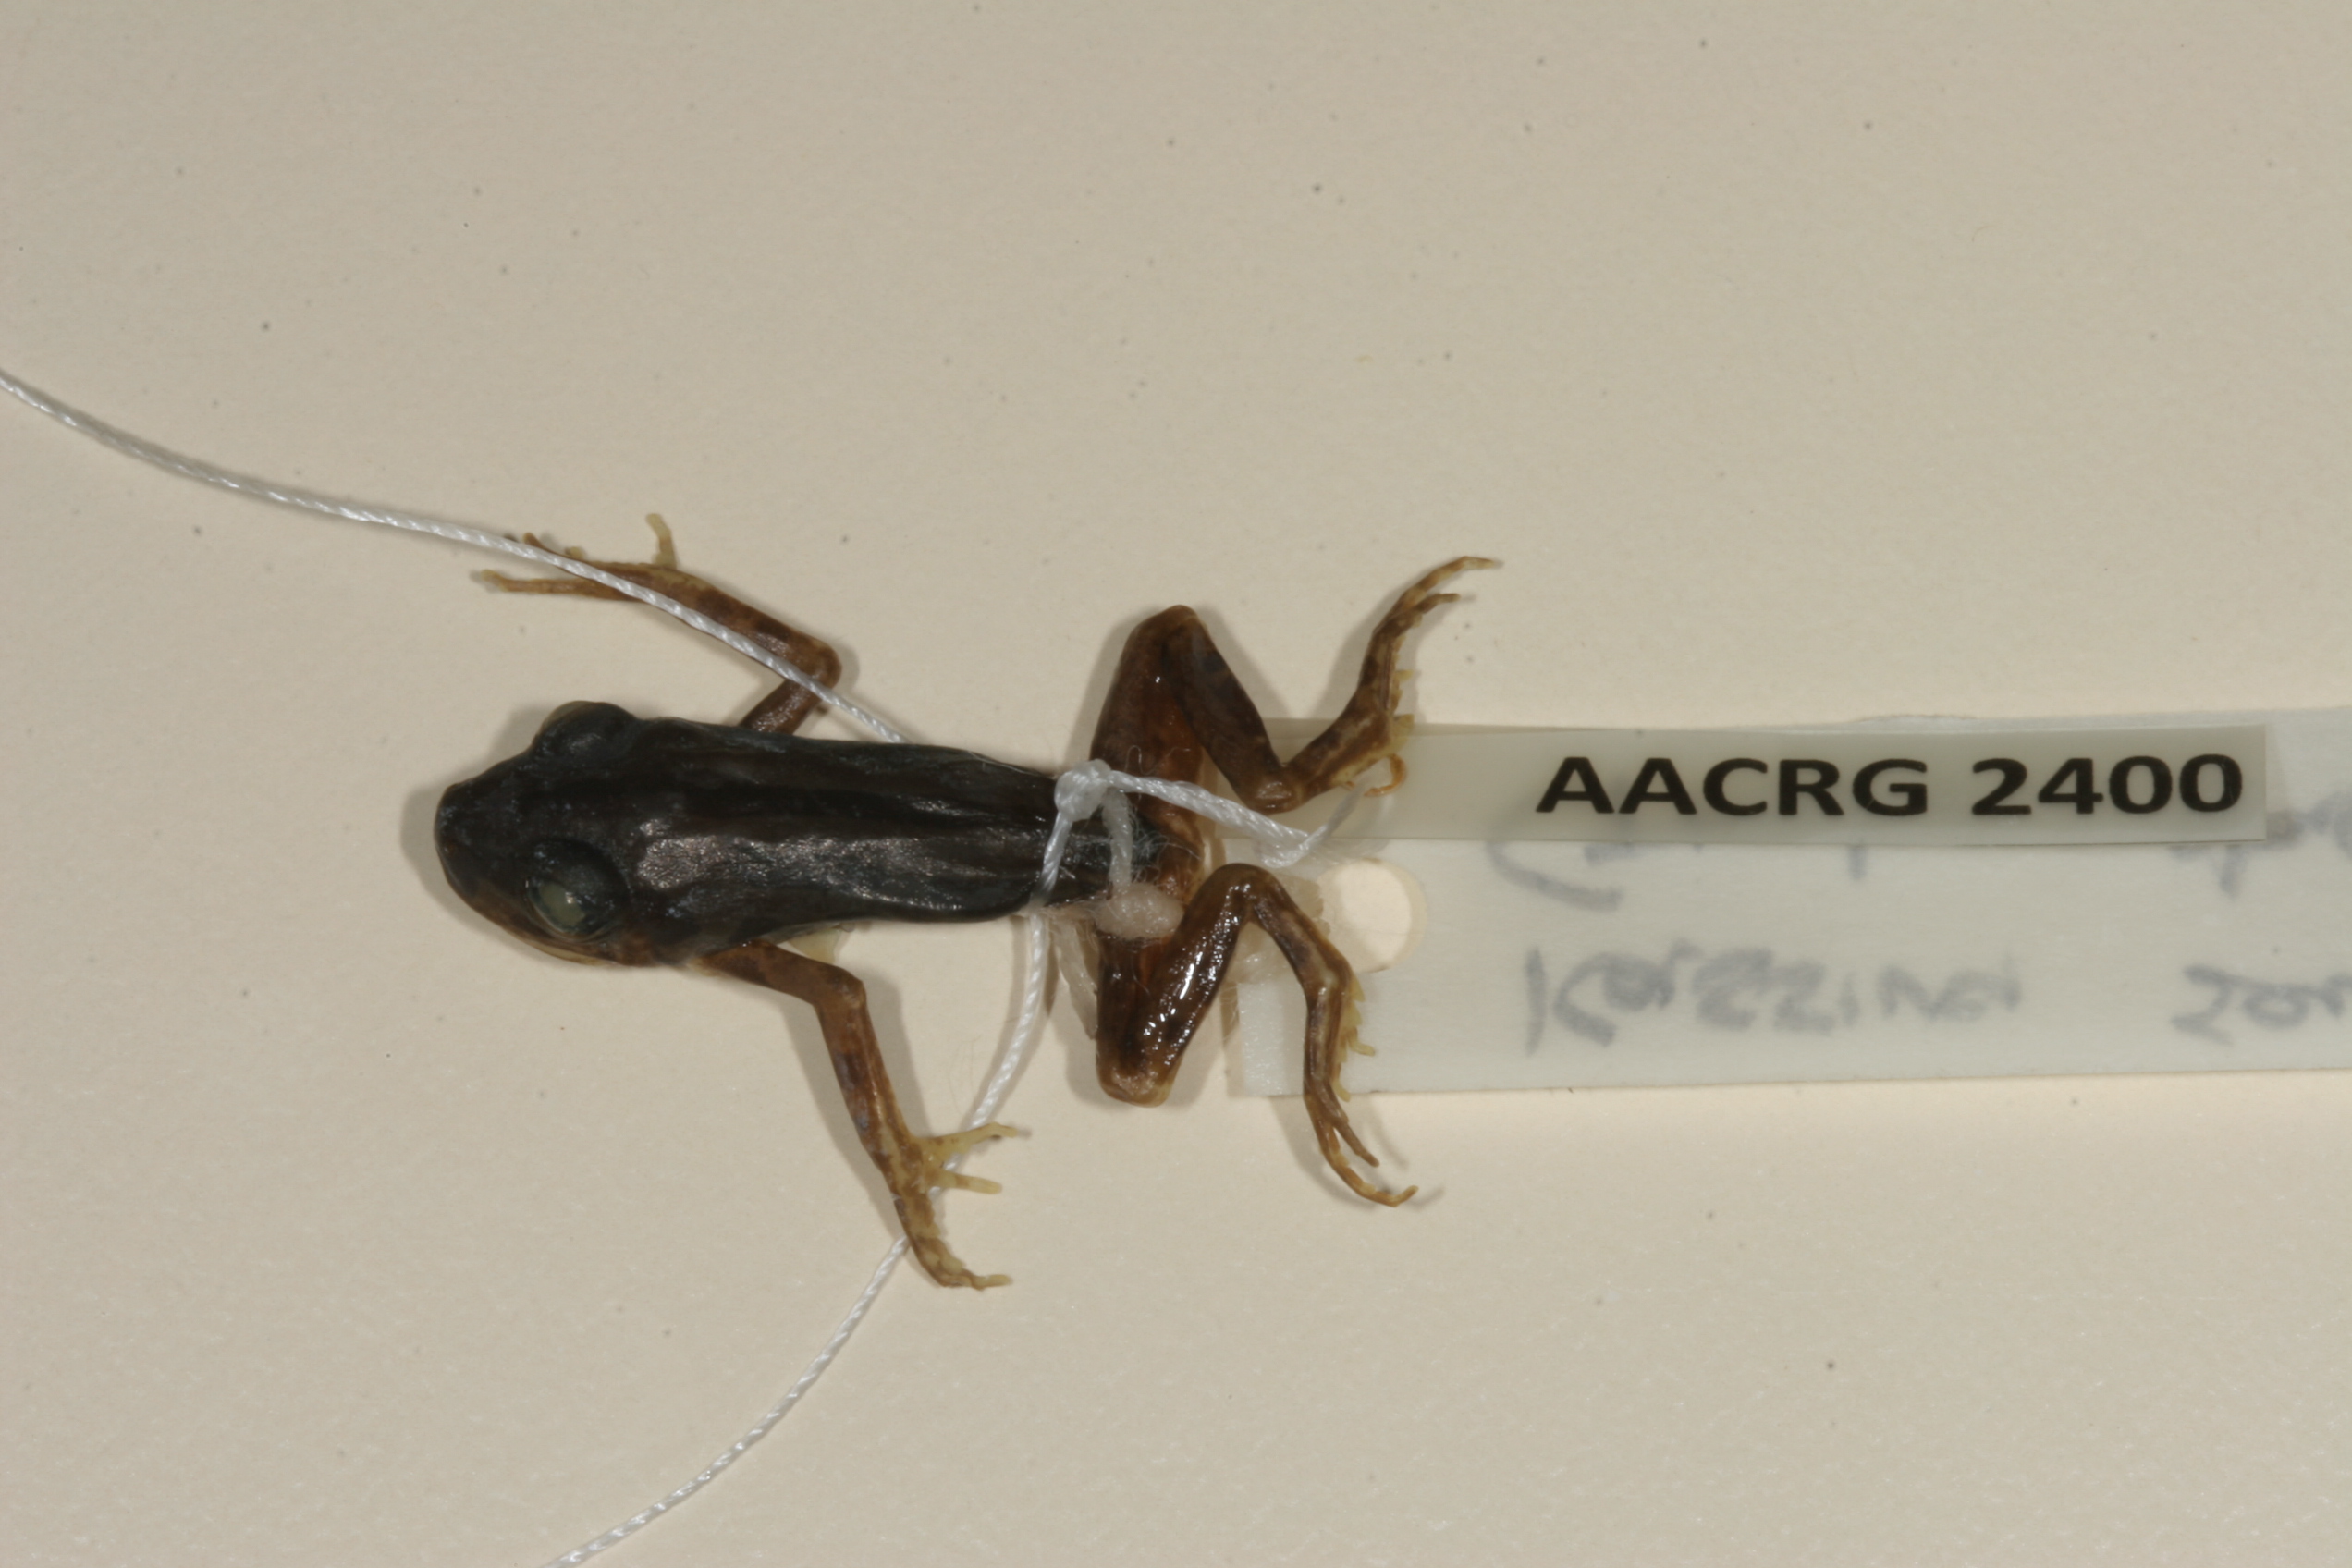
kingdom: Animalia
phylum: Chordata
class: Amphibia
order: Anura
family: Hyperoliidae
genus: Kassina
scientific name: Kassina senegalensis
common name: Senegal land frog
